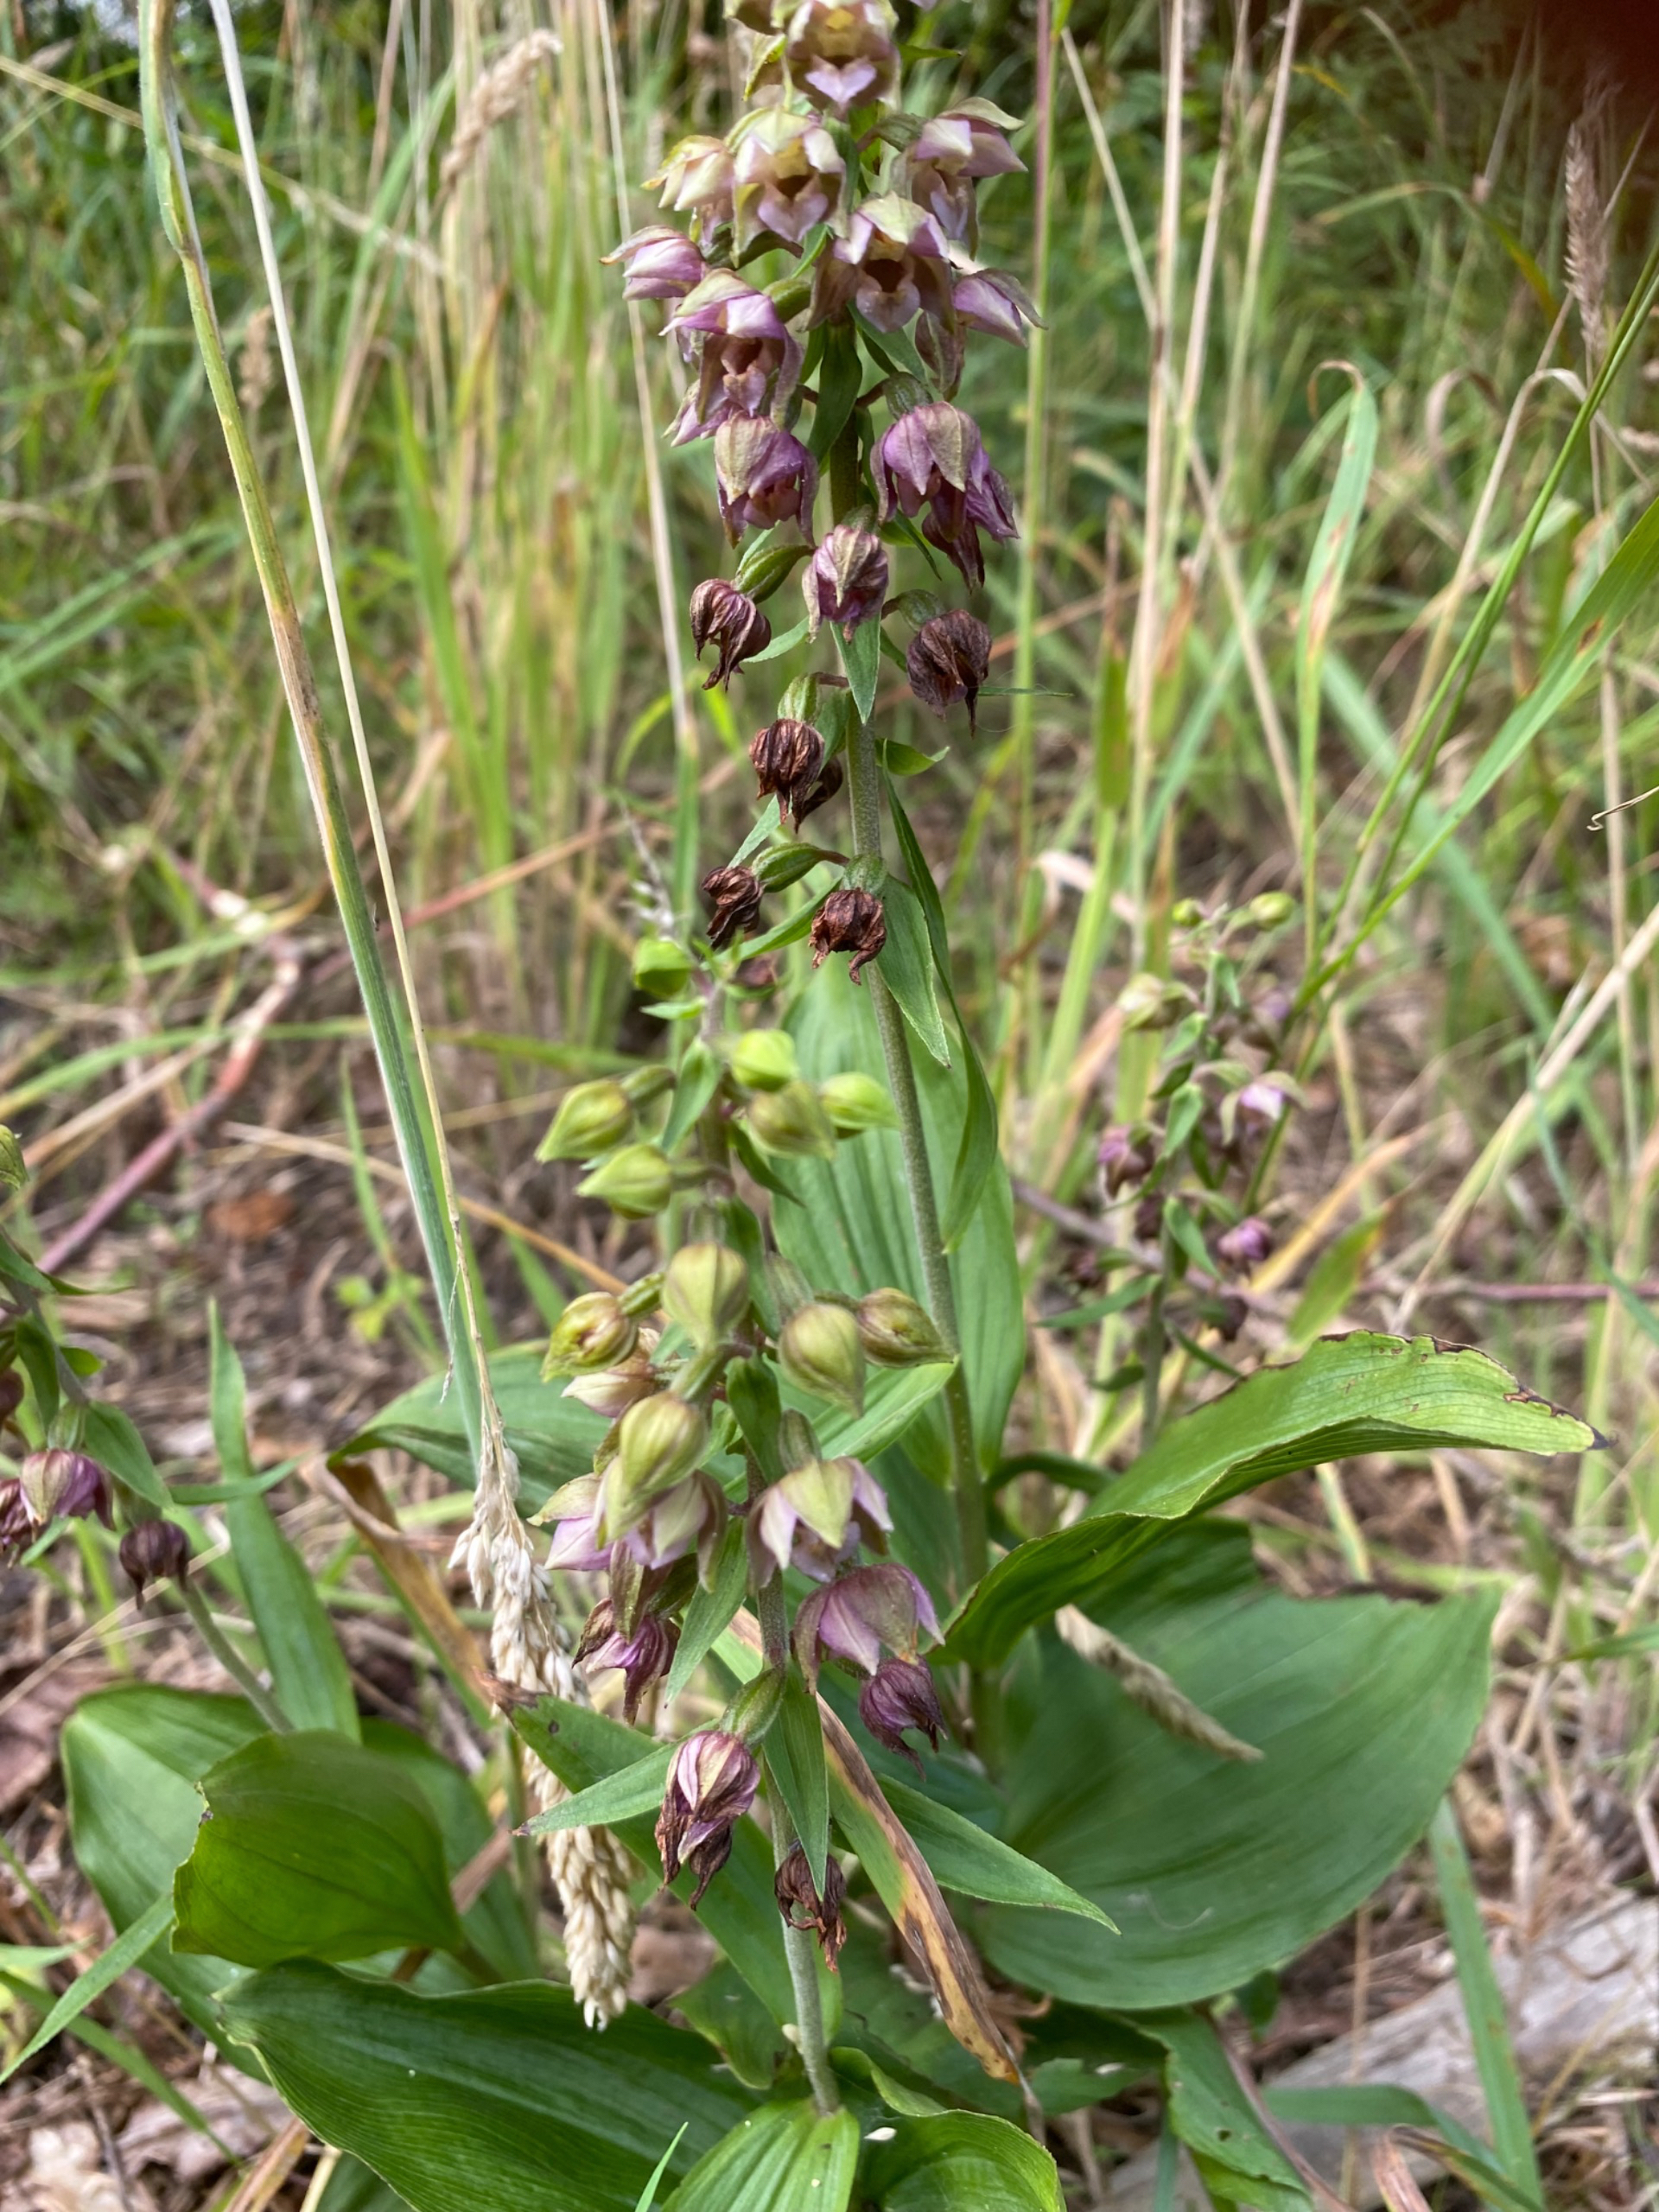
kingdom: Plantae
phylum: Tracheophyta
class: Liliopsida
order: Asparagales
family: Orchidaceae
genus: Epipactis
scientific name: Epipactis helleborine
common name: Skov-hullæbe
